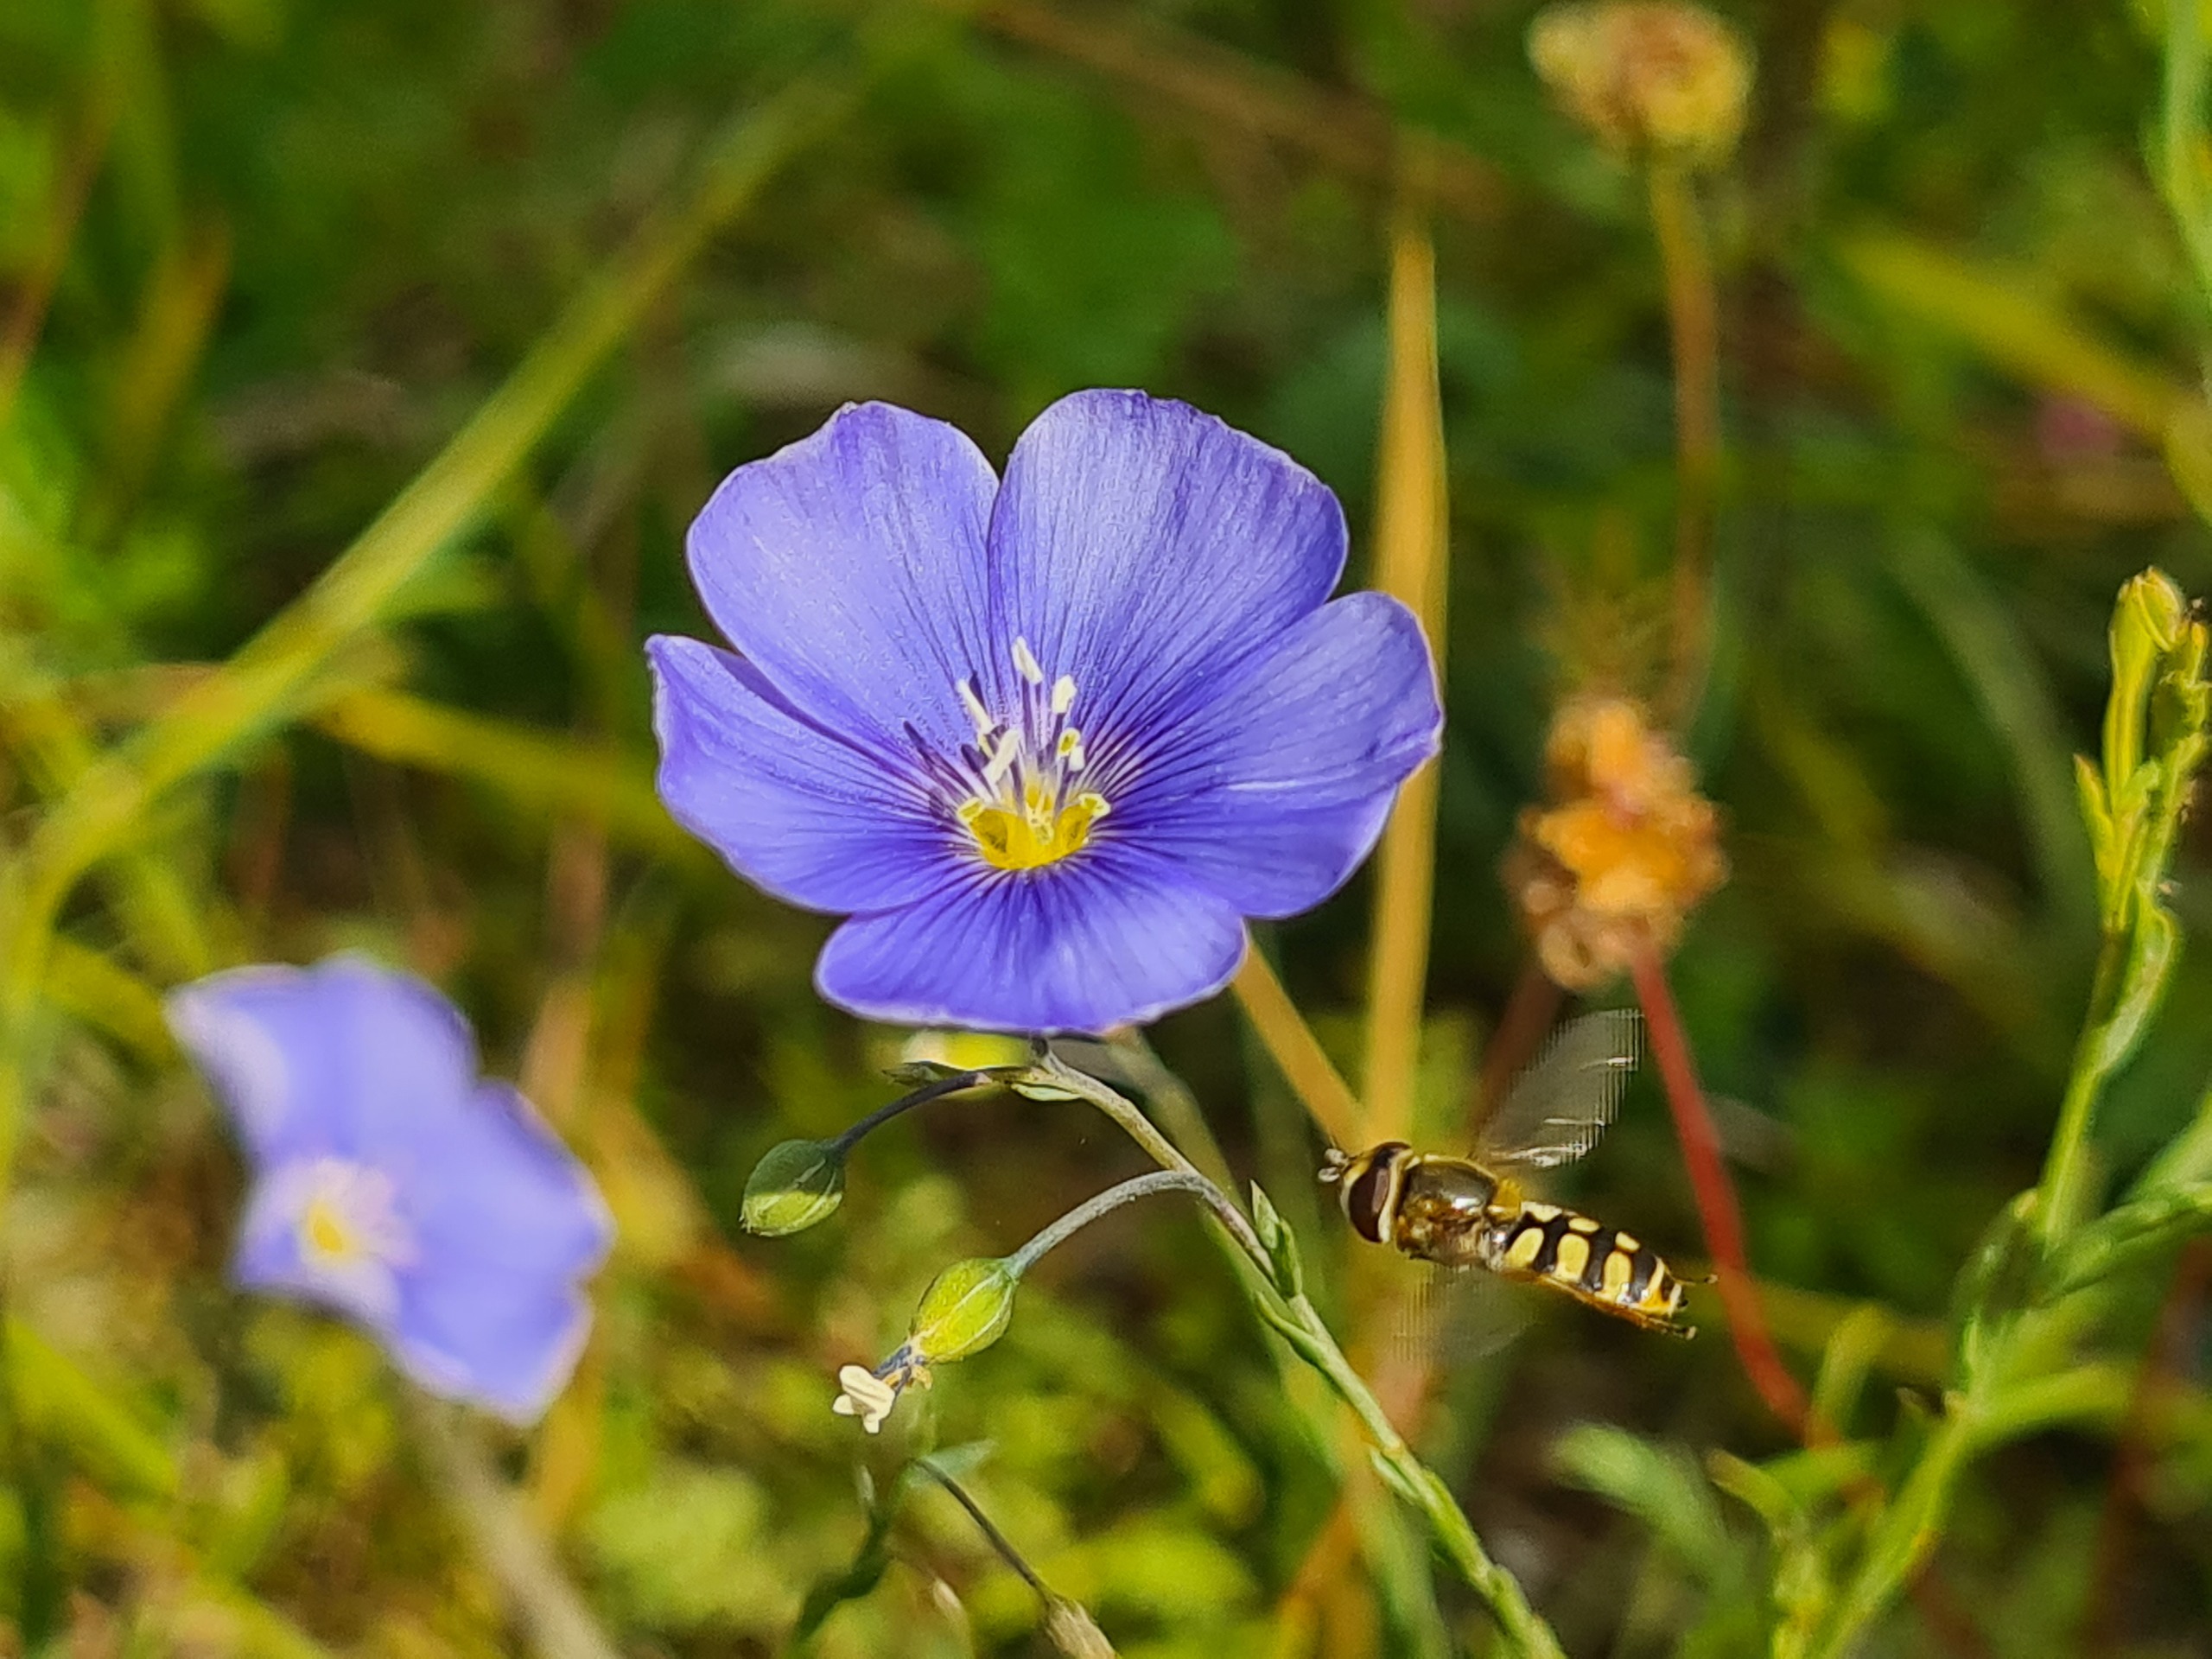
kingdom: Plantae
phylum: Tracheophyta
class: Magnoliopsida
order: Malpighiales
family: Linaceae
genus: Linum
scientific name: Linum austriacum
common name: Østrigsk hør
